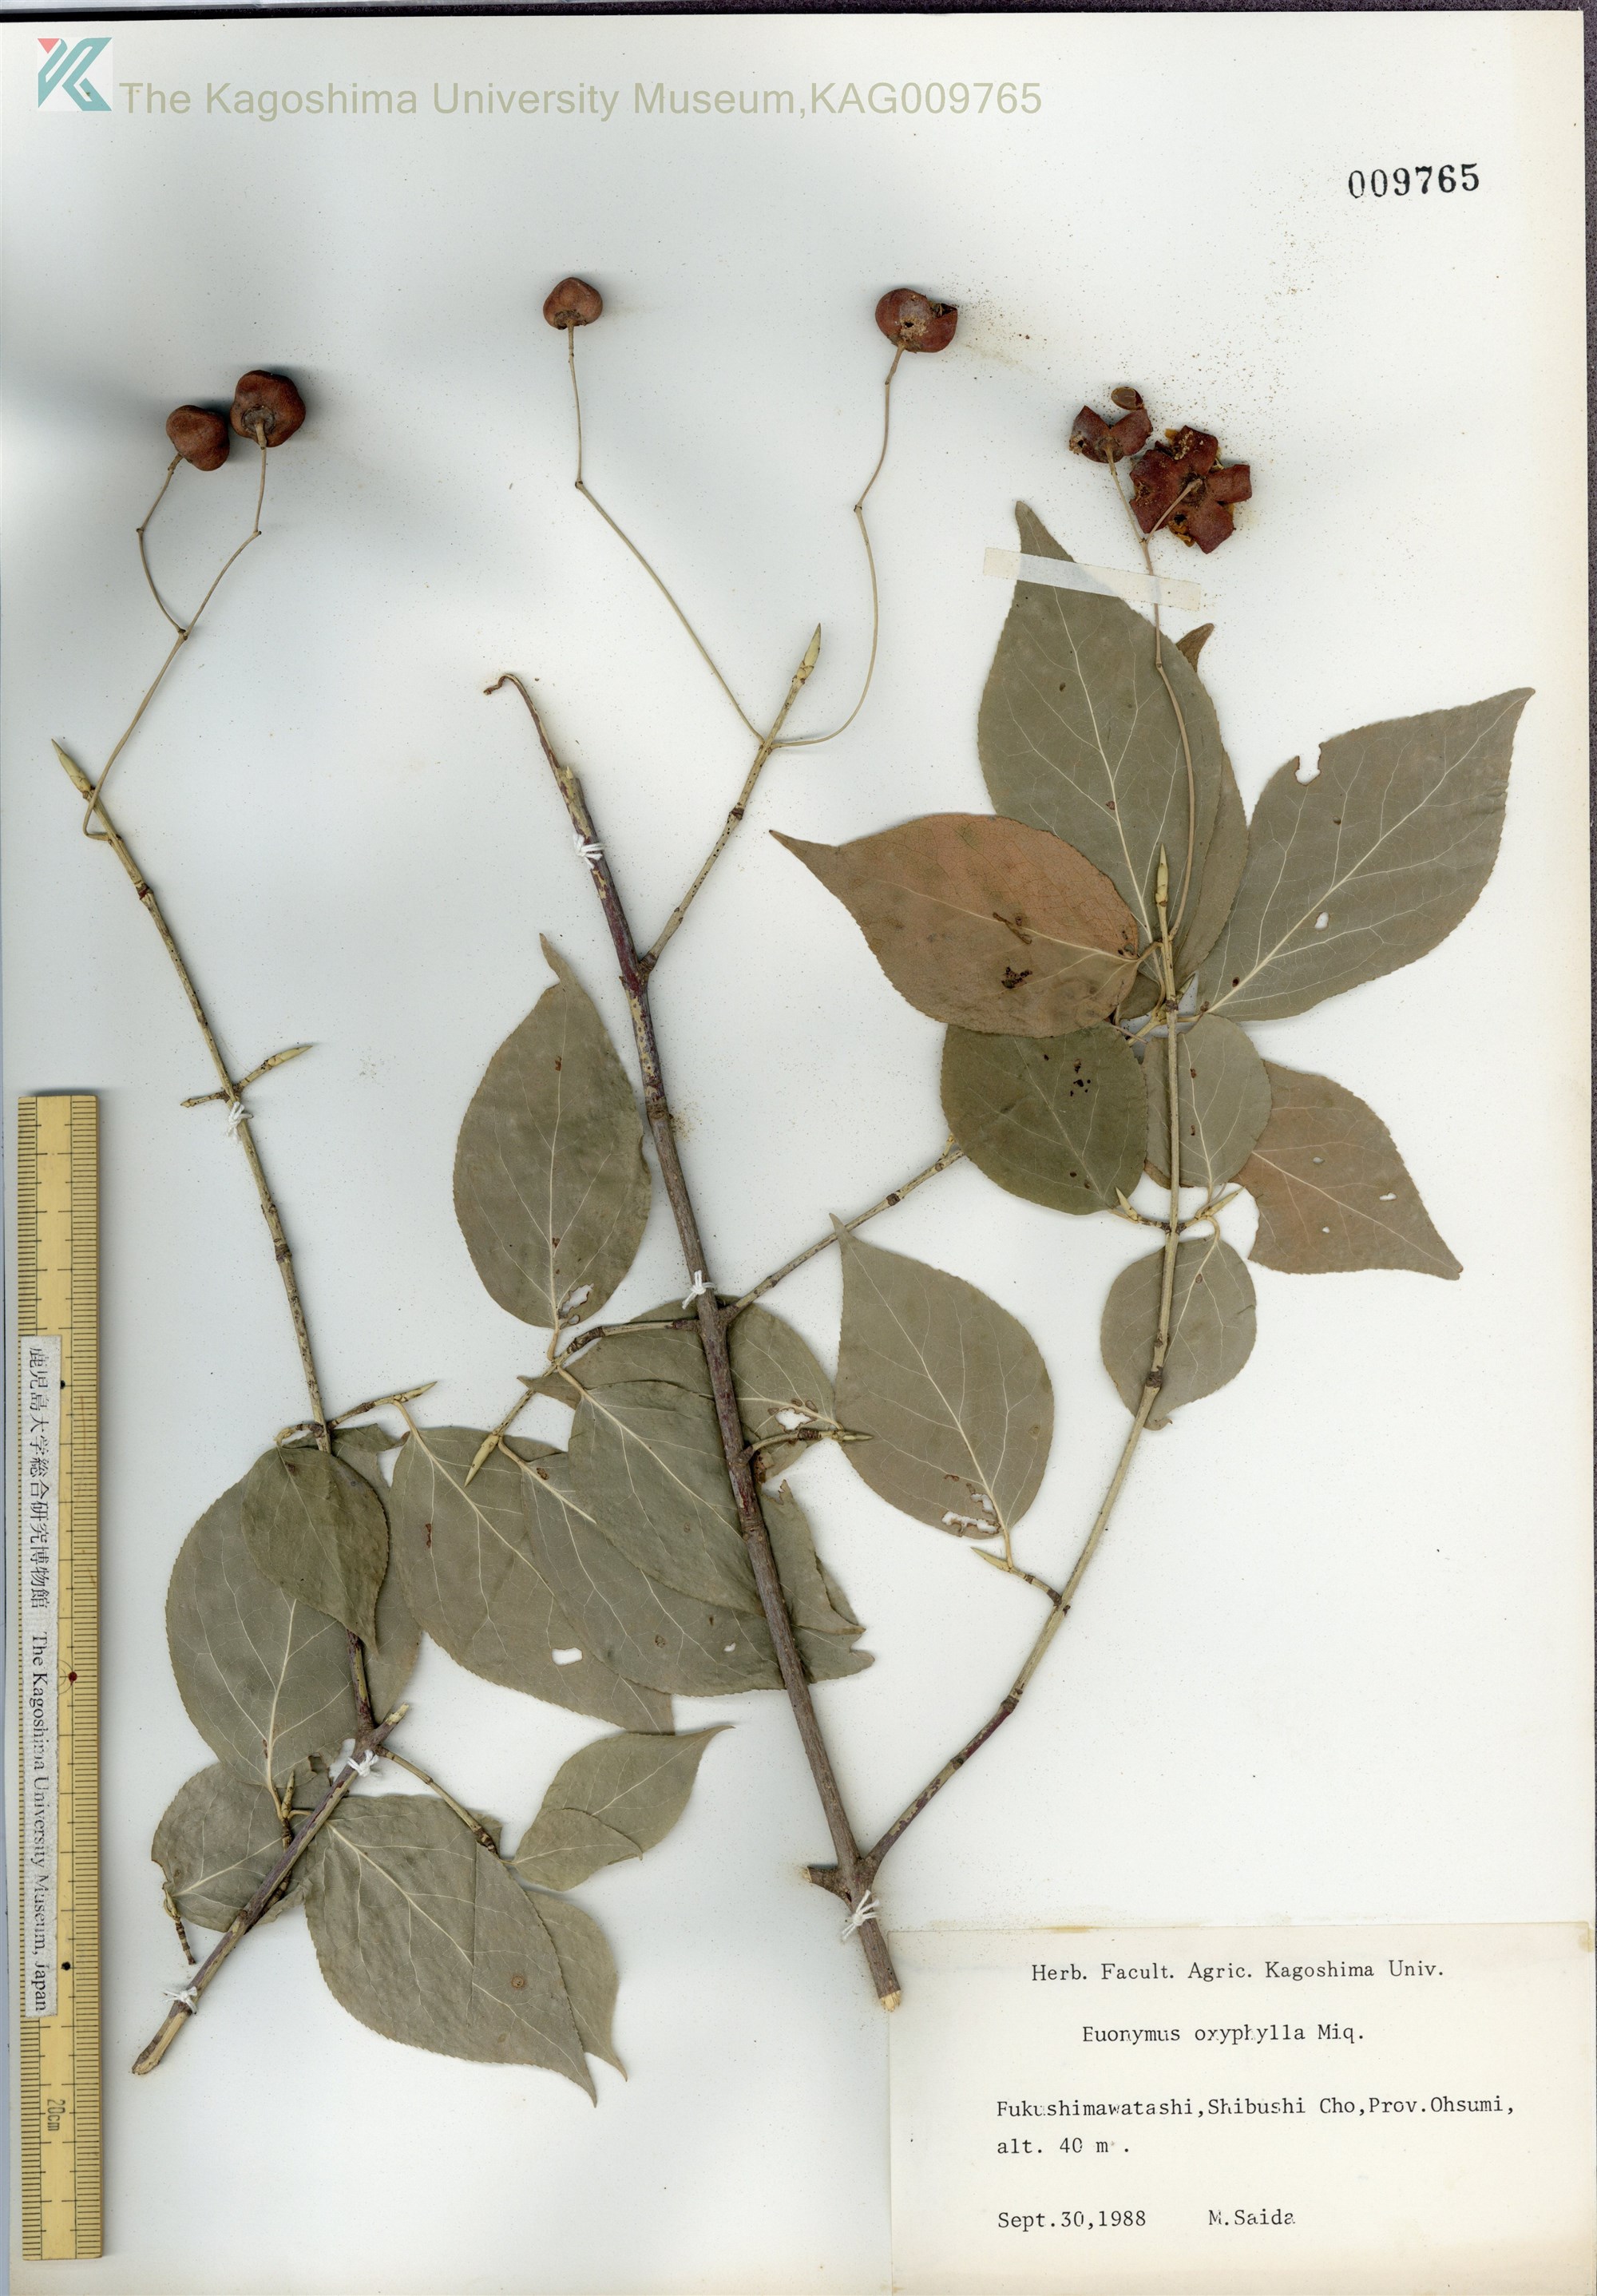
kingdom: Plantae
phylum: Tracheophyta
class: Magnoliopsida
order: Celastrales
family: Celastraceae
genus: Euonymus
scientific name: Euonymus oxyphyllus
